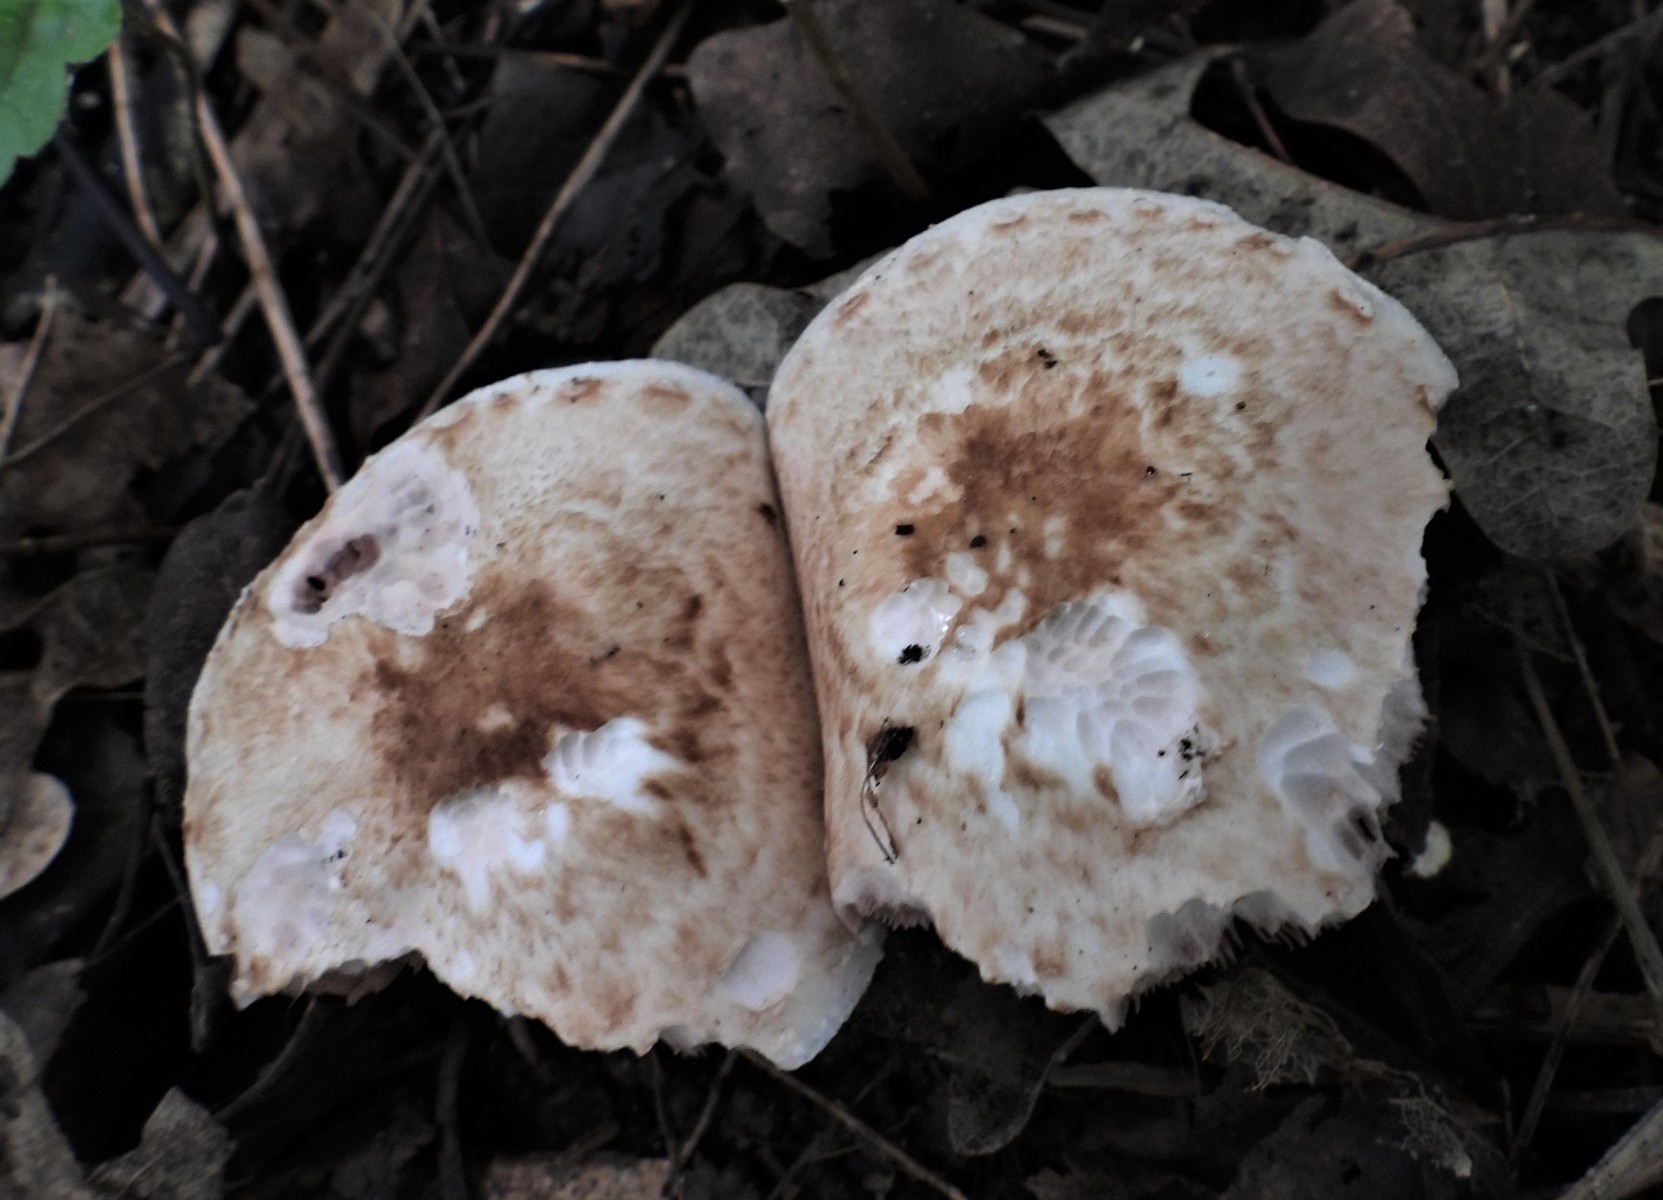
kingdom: Fungi
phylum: Basidiomycota
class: Agaricomycetes
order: Agaricales
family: Agaricaceae
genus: Agaricus
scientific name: Agaricus impudicus
